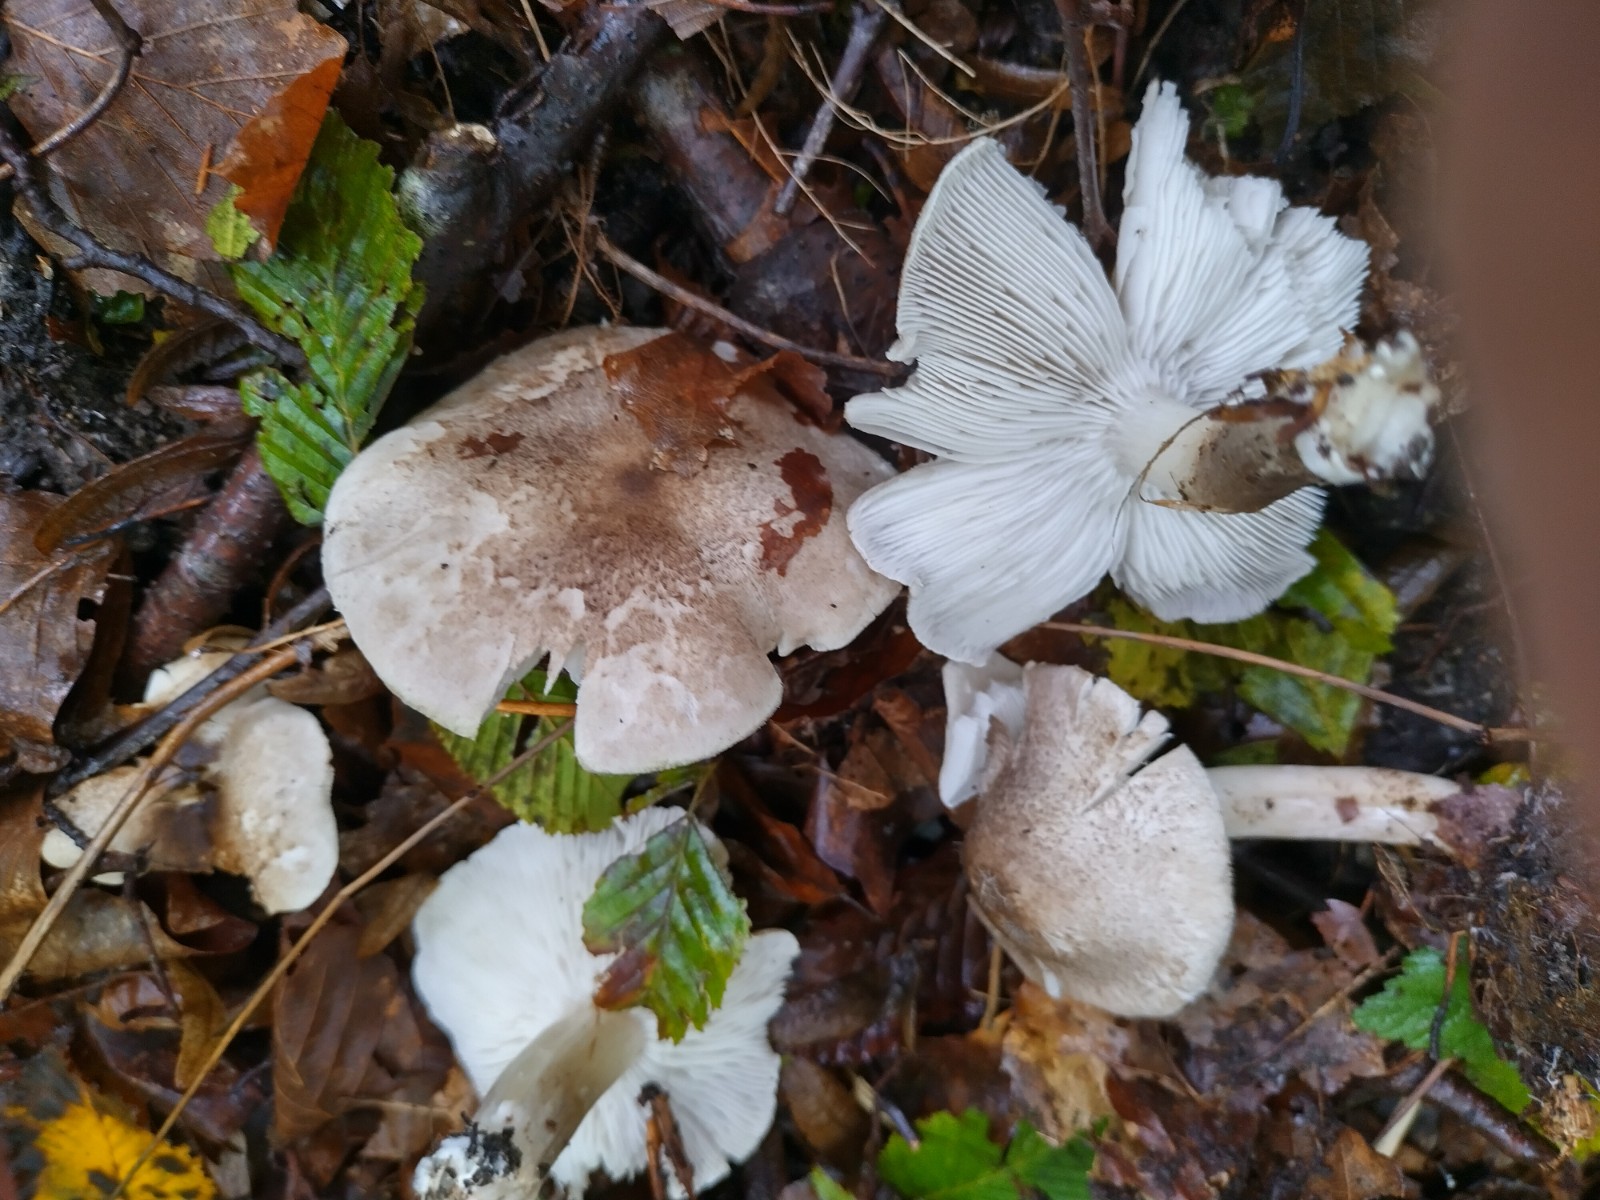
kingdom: Fungi
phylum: Basidiomycota
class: Agaricomycetes
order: Agaricales
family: Tricholomataceae
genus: Tricholoma
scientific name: Tricholoma scalpturatum
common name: gulplettet ridderhat
